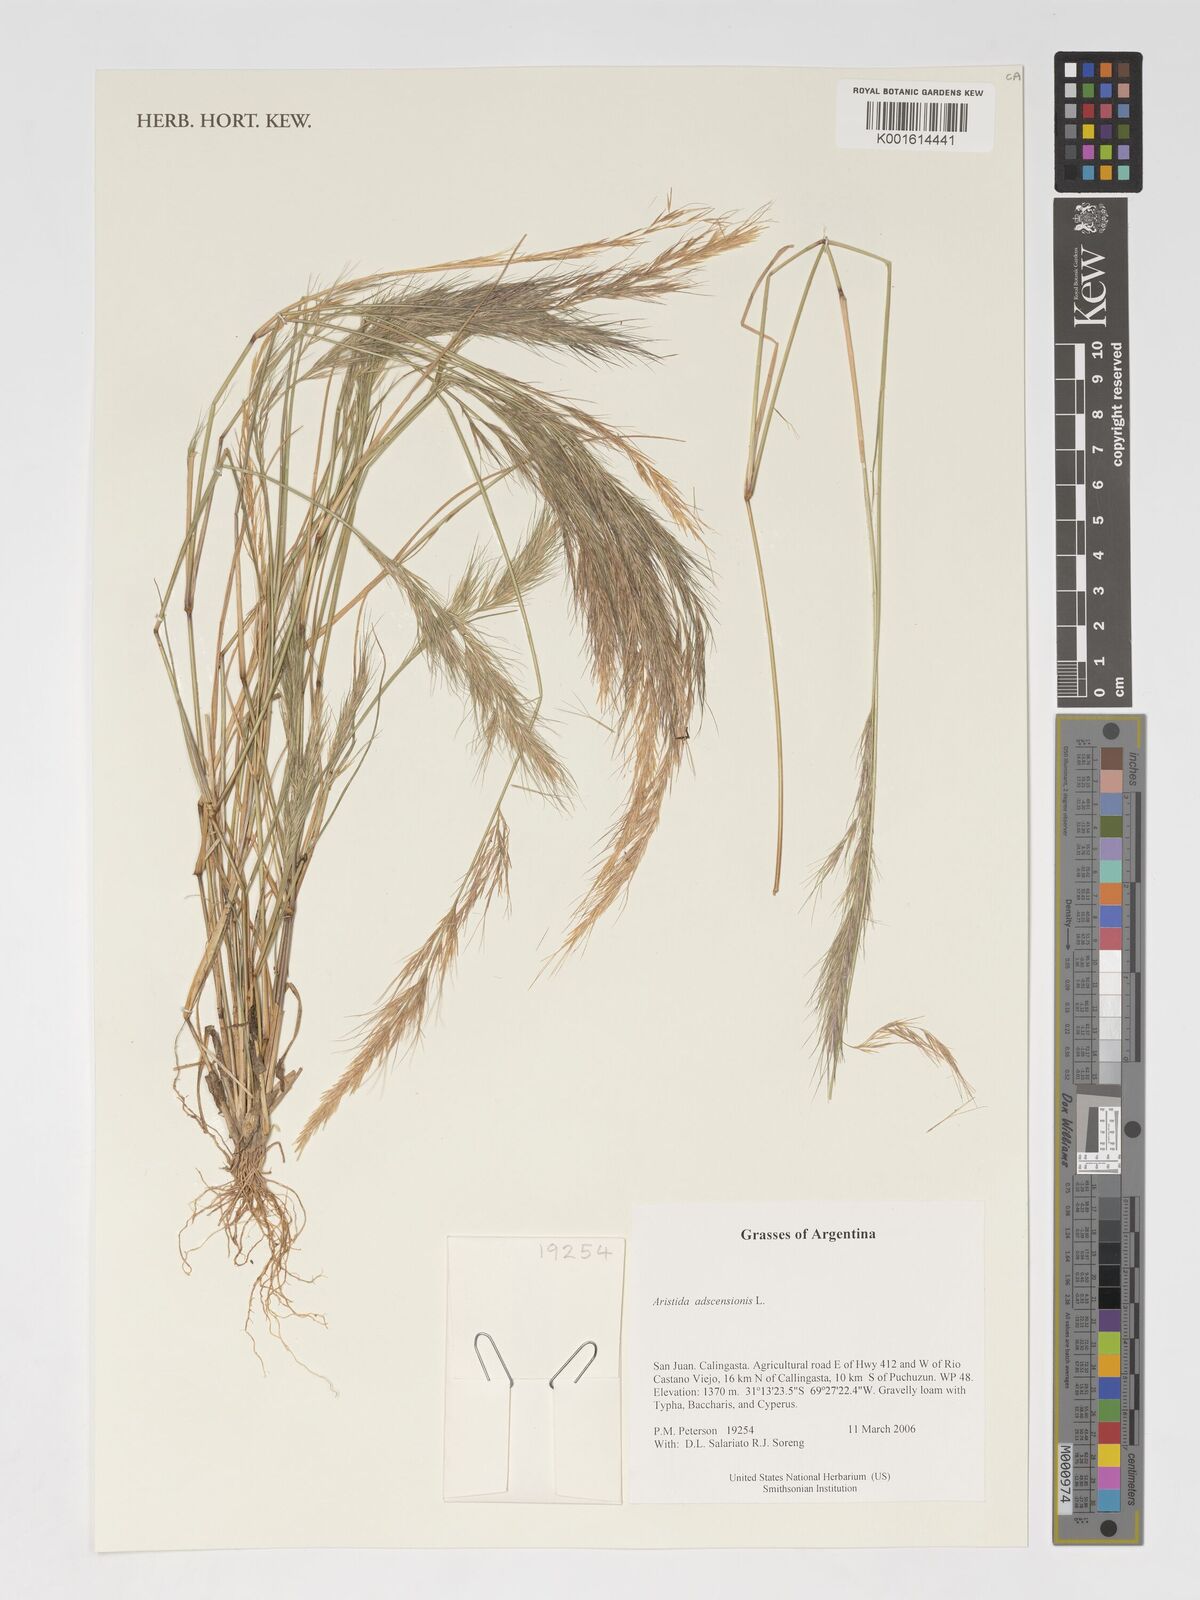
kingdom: Plantae
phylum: Tracheophyta
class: Liliopsida
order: Poales
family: Poaceae
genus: Aristida
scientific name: Aristida adscensionis
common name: Sixweeks threeawn
